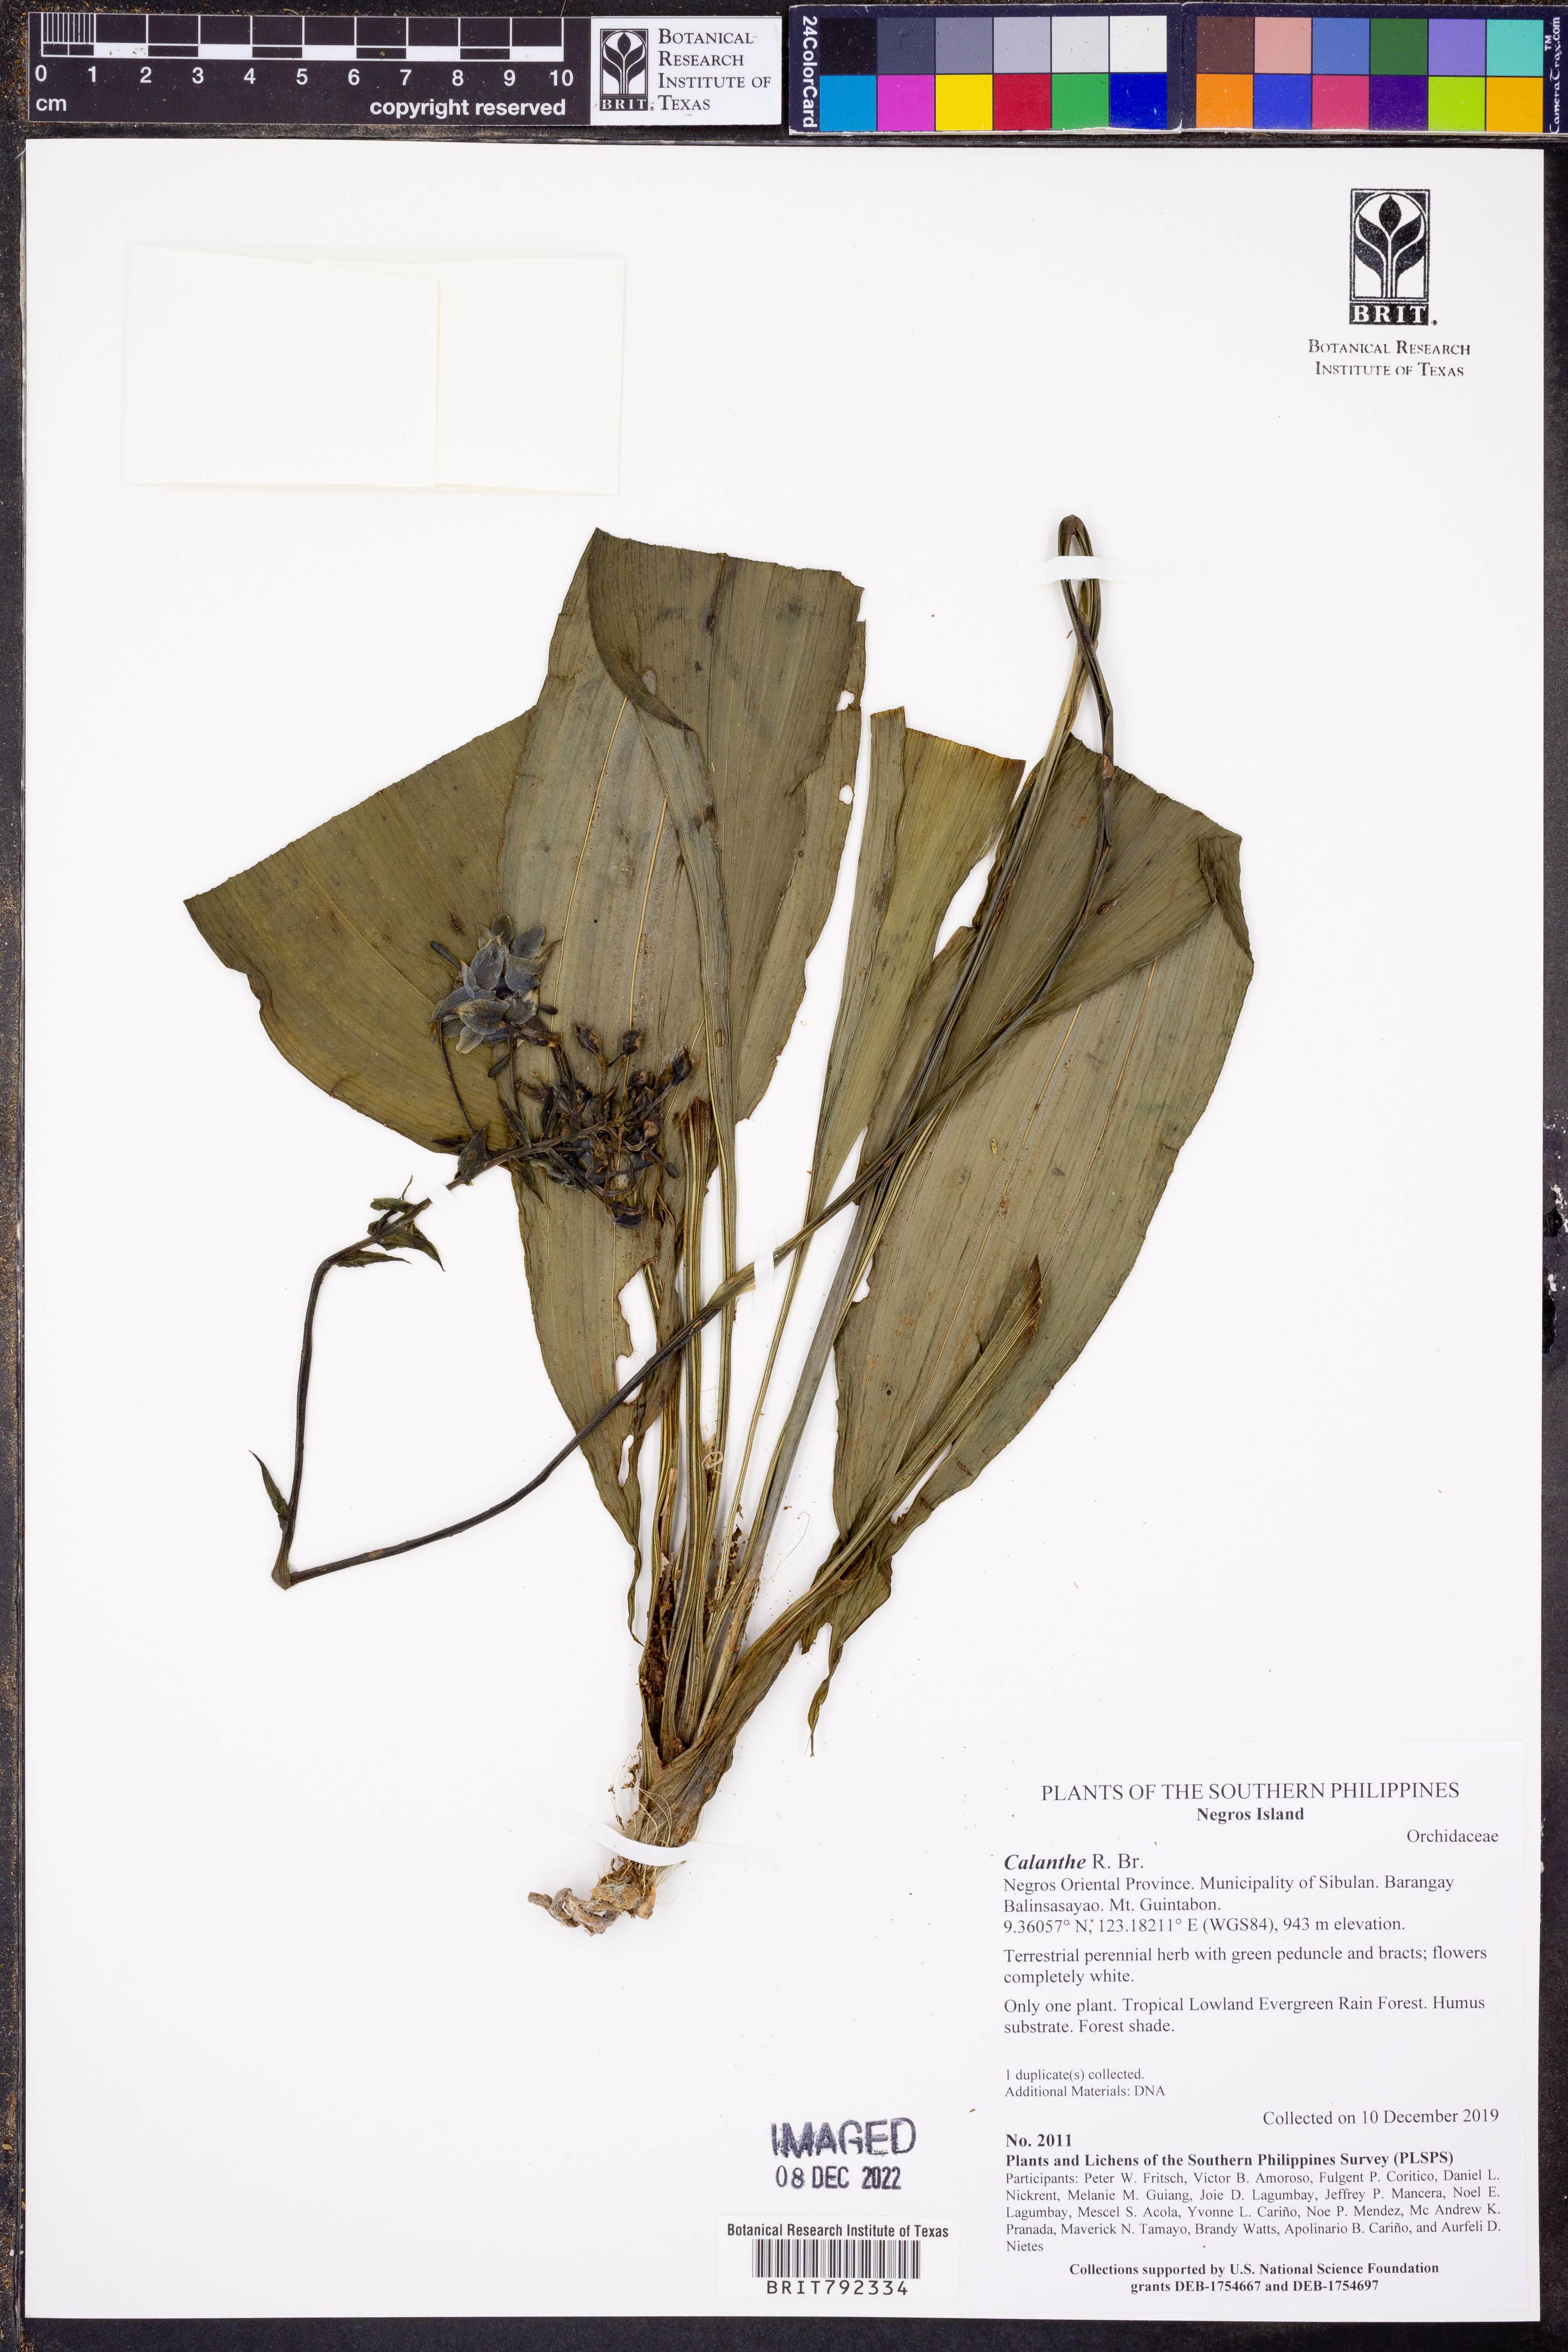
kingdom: Plantae
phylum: Tracheophyta
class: Liliopsida
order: Asparagales
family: Orchidaceae
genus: Calanthe
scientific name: Calanthe
